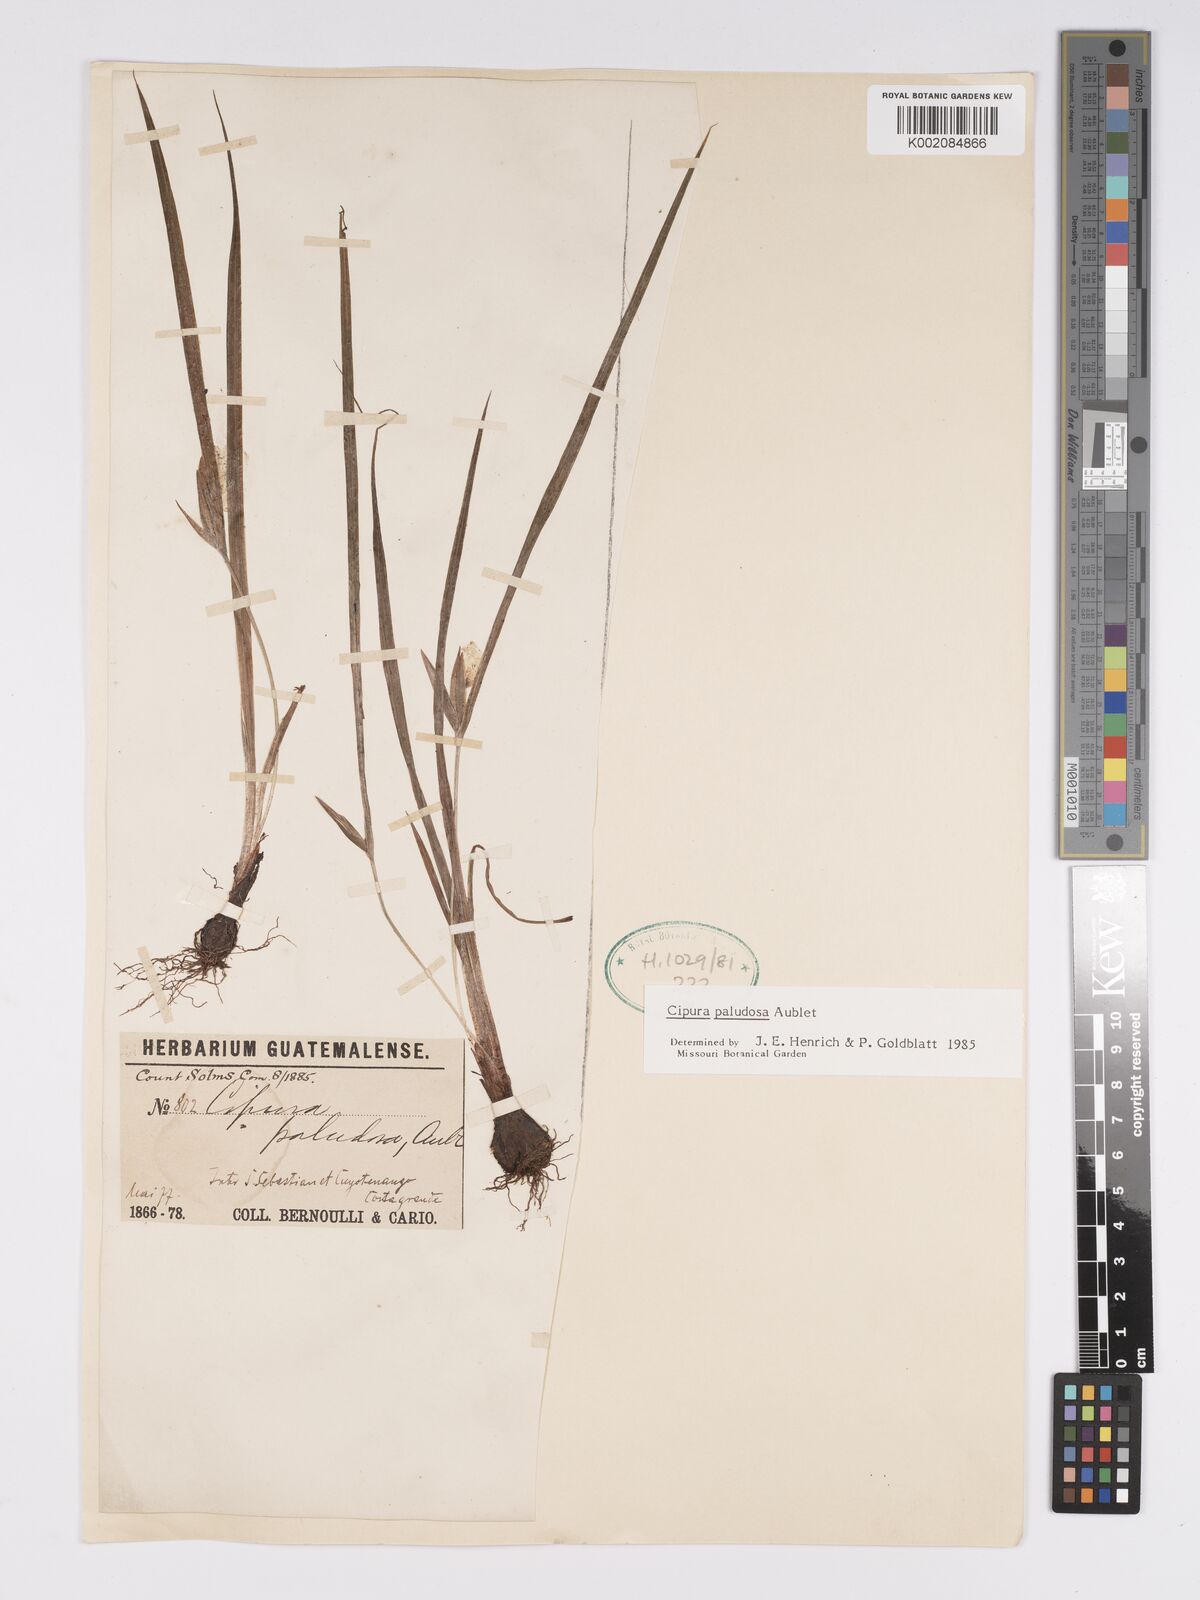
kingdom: Plantae
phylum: Tracheophyta
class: Liliopsida
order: Asparagales
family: Iridaceae
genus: Cipura
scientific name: Cipura paludosa
